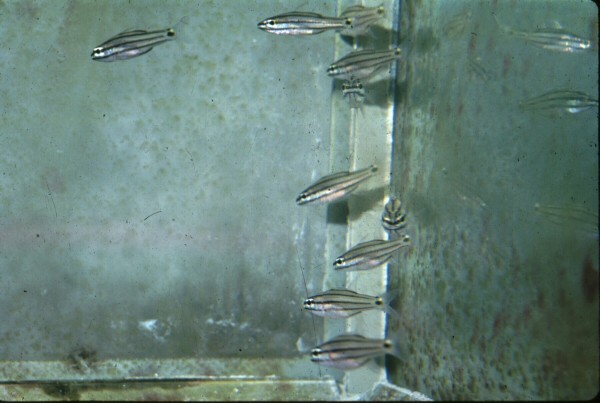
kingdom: Animalia
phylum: Chordata
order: Perciformes
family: Apogonidae
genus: Cheilodipterus
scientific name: Cheilodipterus novemstriatus
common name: Indian ocean twospot cardinalfish
